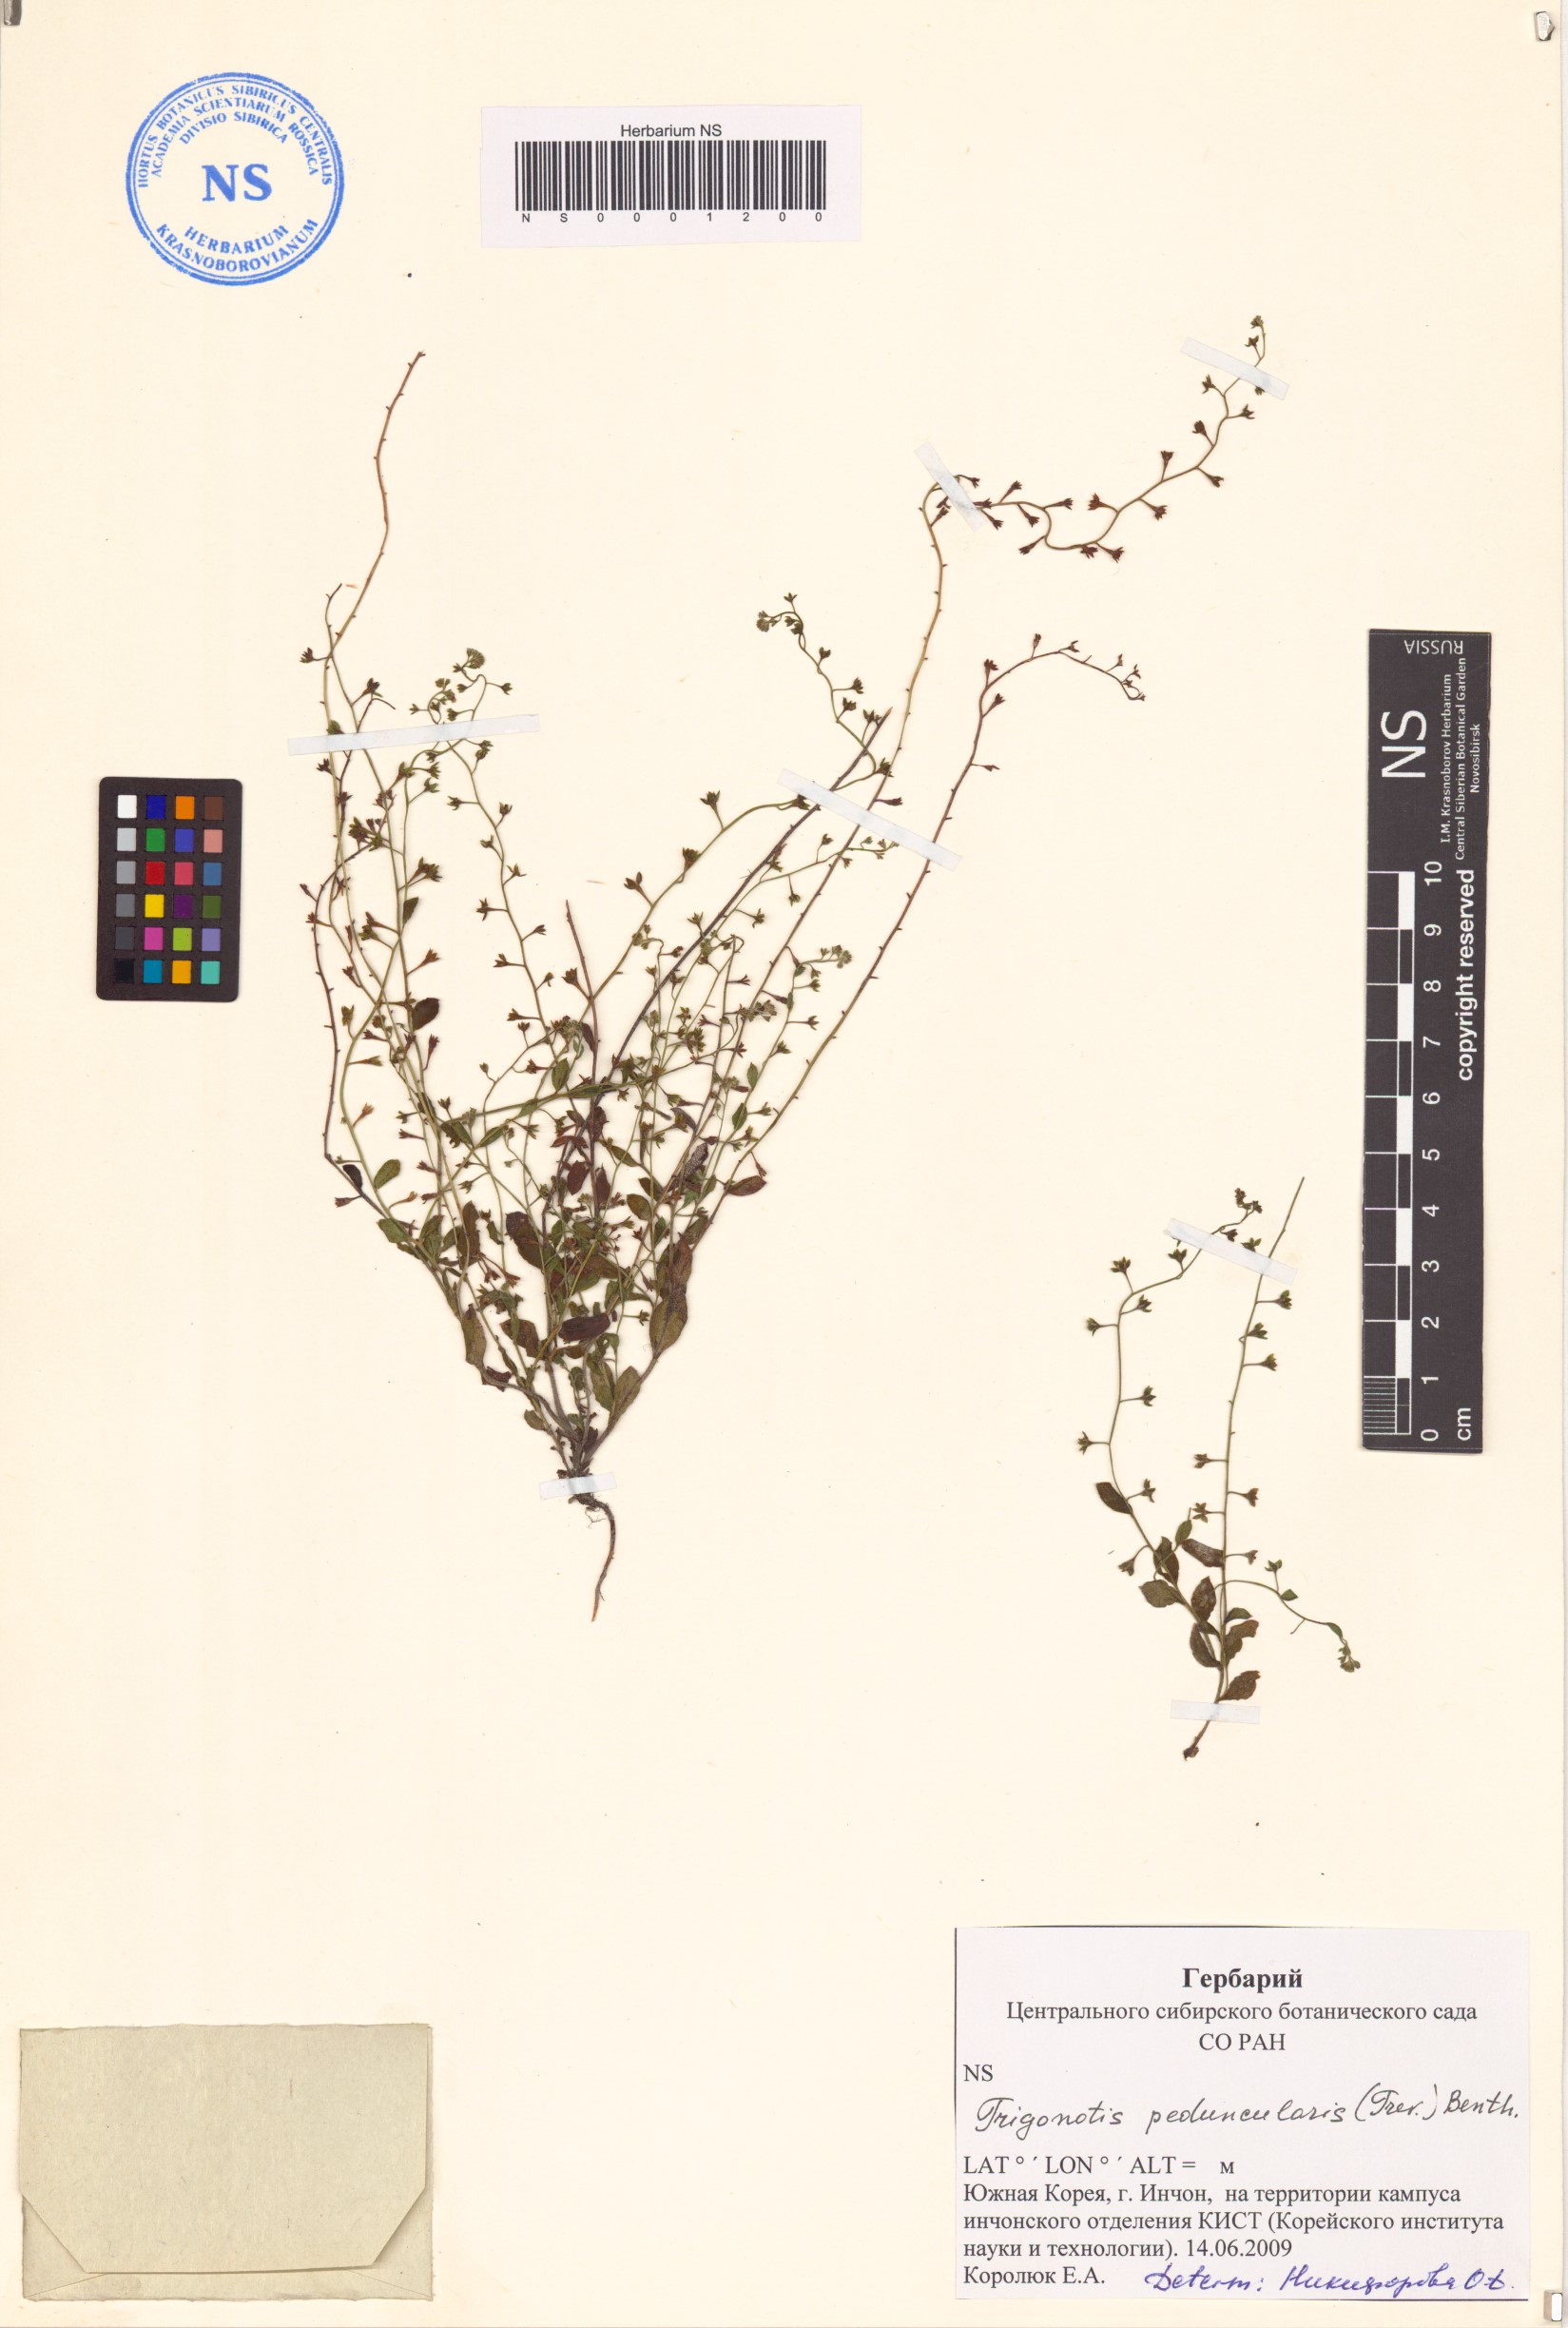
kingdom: Plantae
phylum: Tracheophyta
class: Magnoliopsida
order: Boraginales
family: Boraginaceae
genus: Trigonotis
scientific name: Trigonotis peduncularis
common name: Cucumber herb
